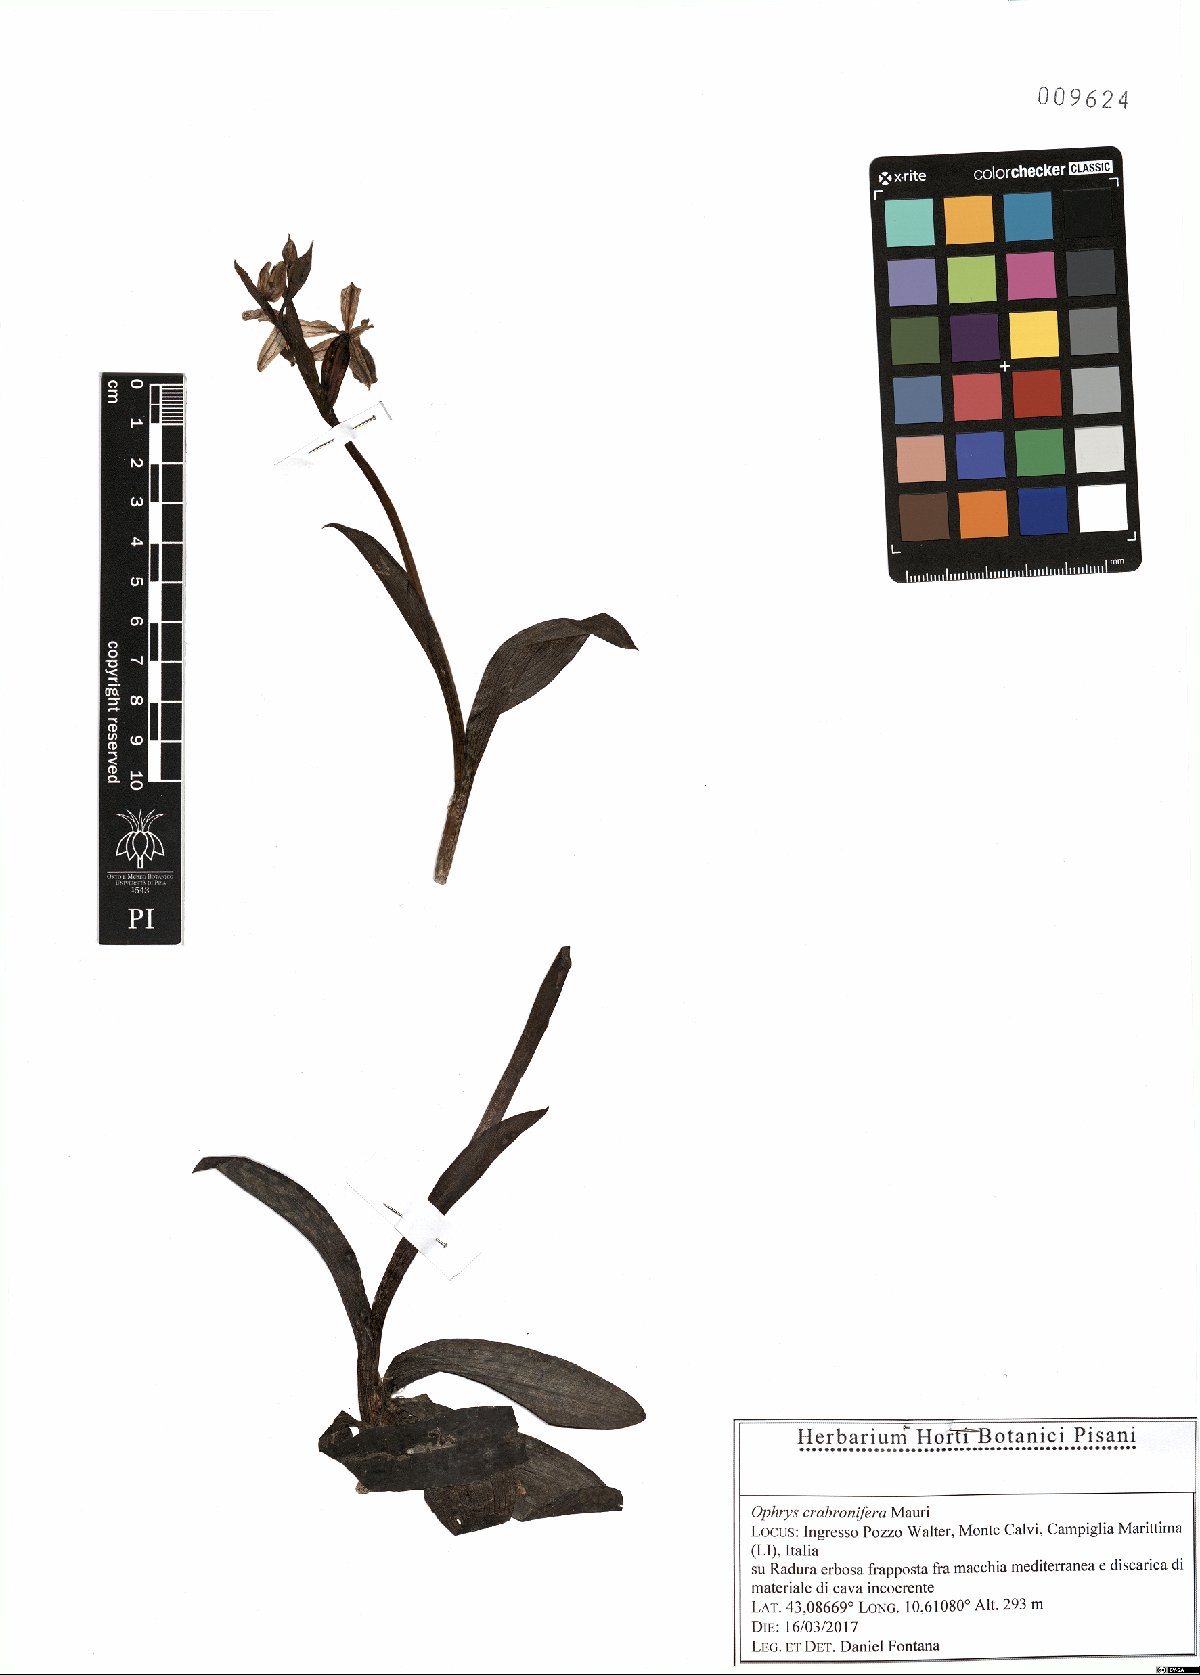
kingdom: Plantae
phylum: Tracheophyta
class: Liliopsida
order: Asparagales
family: Orchidaceae
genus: Ophrys
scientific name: Ophrys argolica
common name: Argolic ophrys
